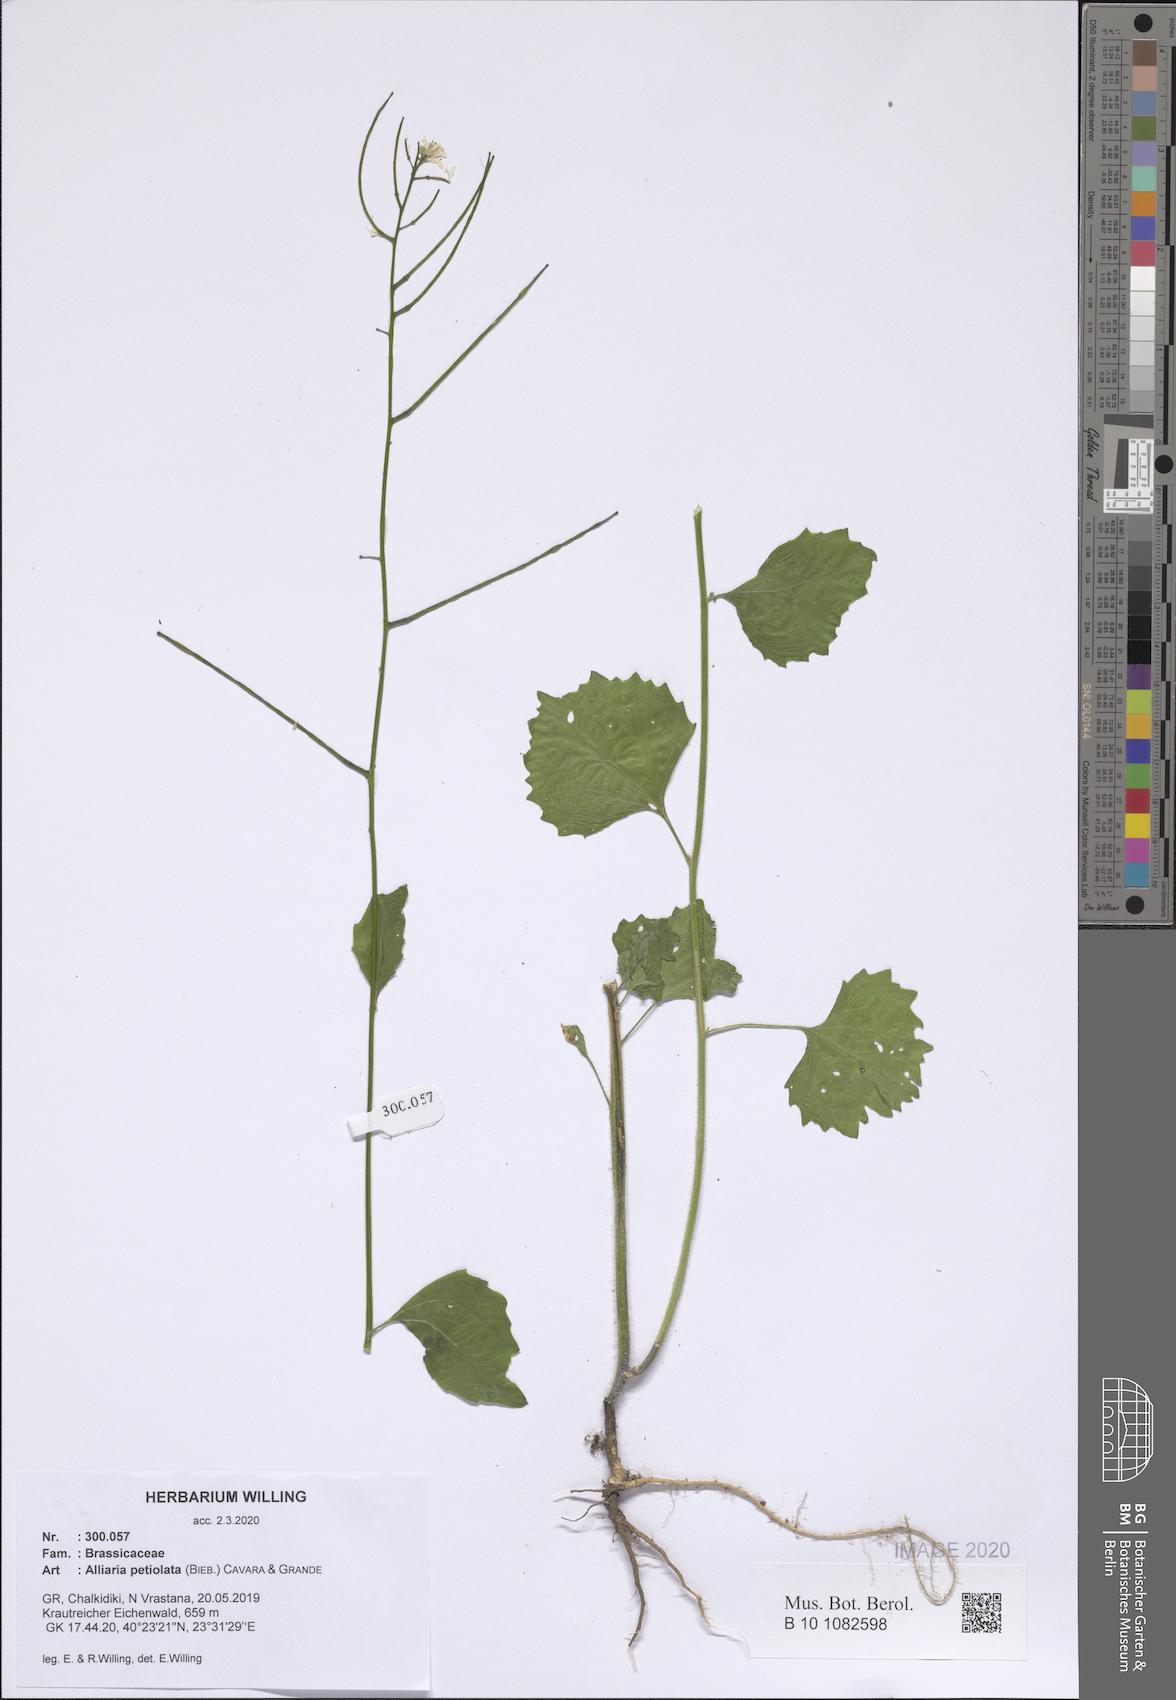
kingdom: Plantae
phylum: Tracheophyta
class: Magnoliopsida
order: Brassicales
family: Brassicaceae
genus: Alliaria
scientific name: Alliaria petiolata
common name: Garlic mustard
